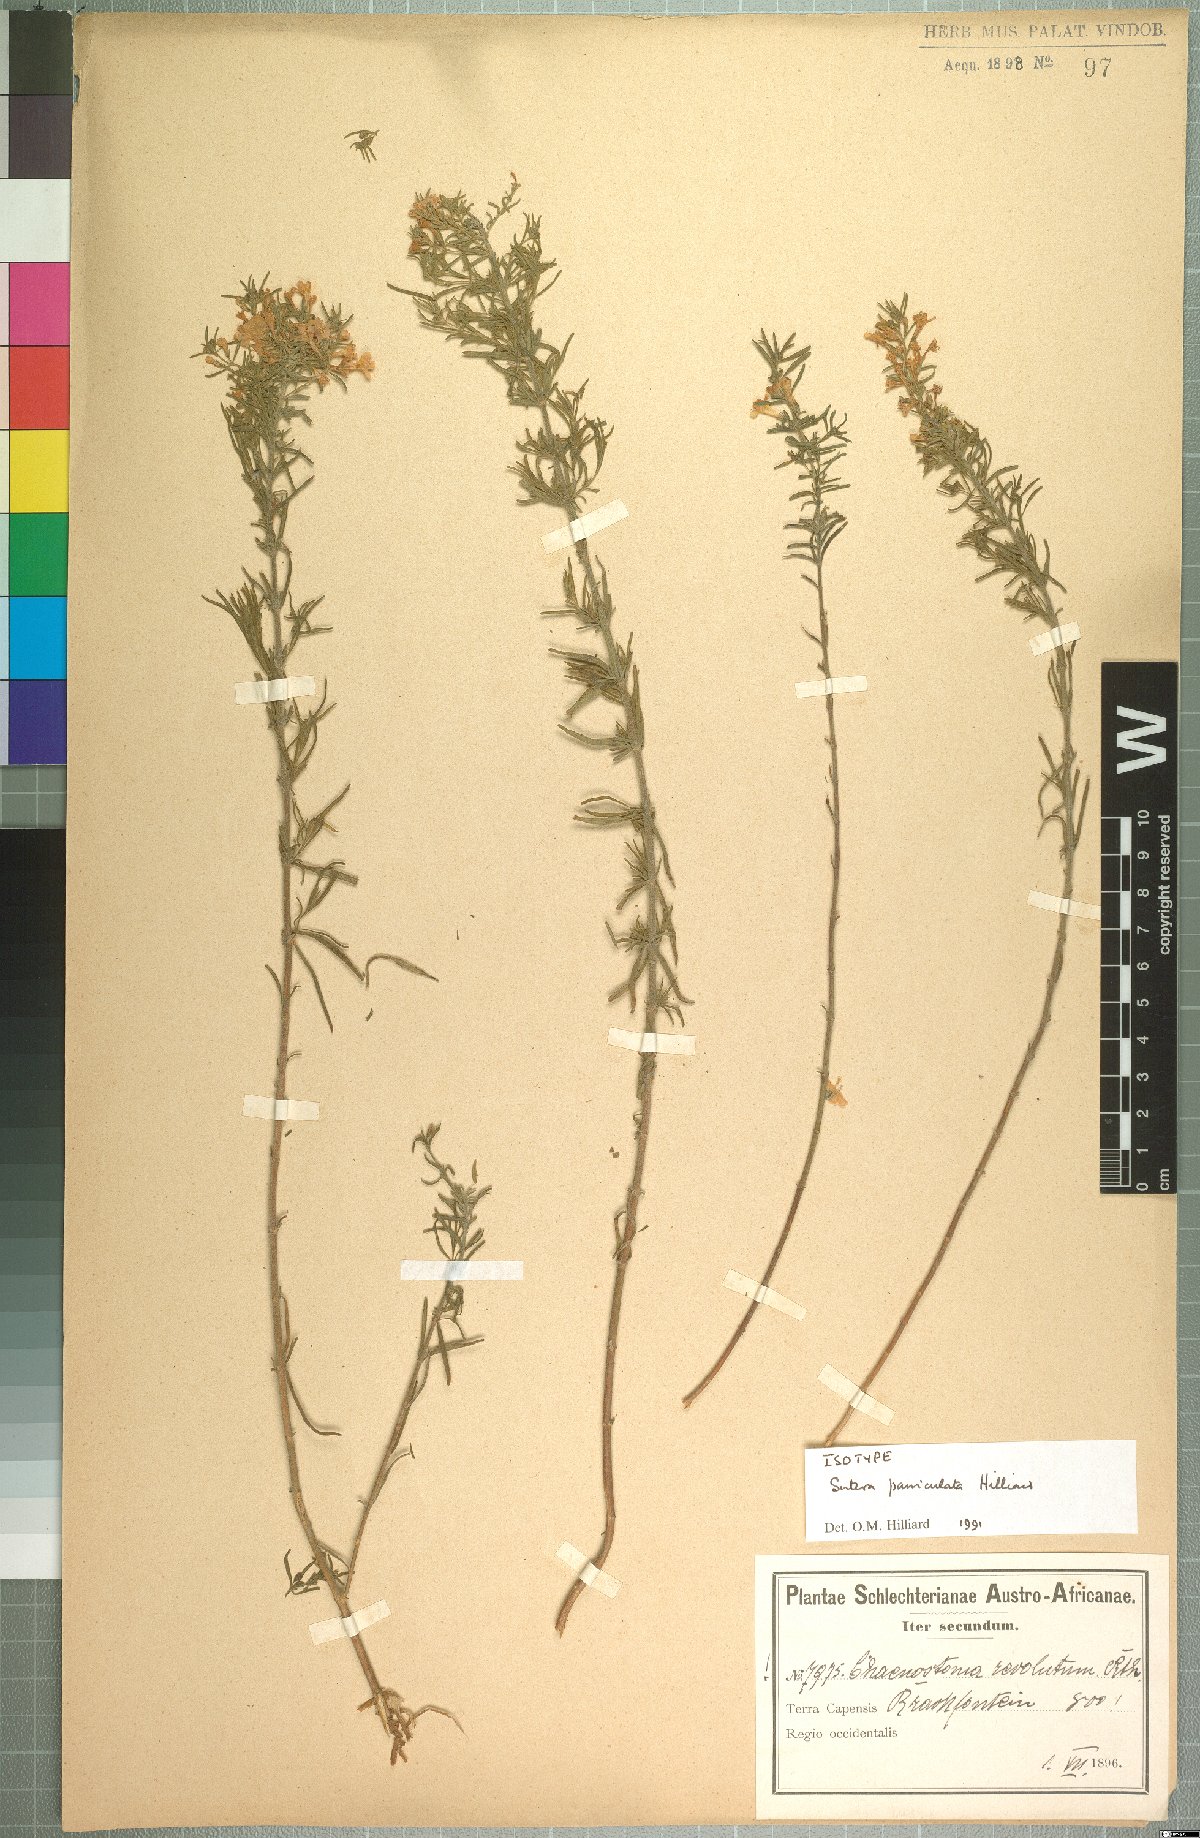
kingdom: Plantae
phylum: Tracheophyta
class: Magnoliopsida
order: Lamiales
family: Scrophulariaceae
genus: Chaenostoma
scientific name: Chaenostoma paniculatum
